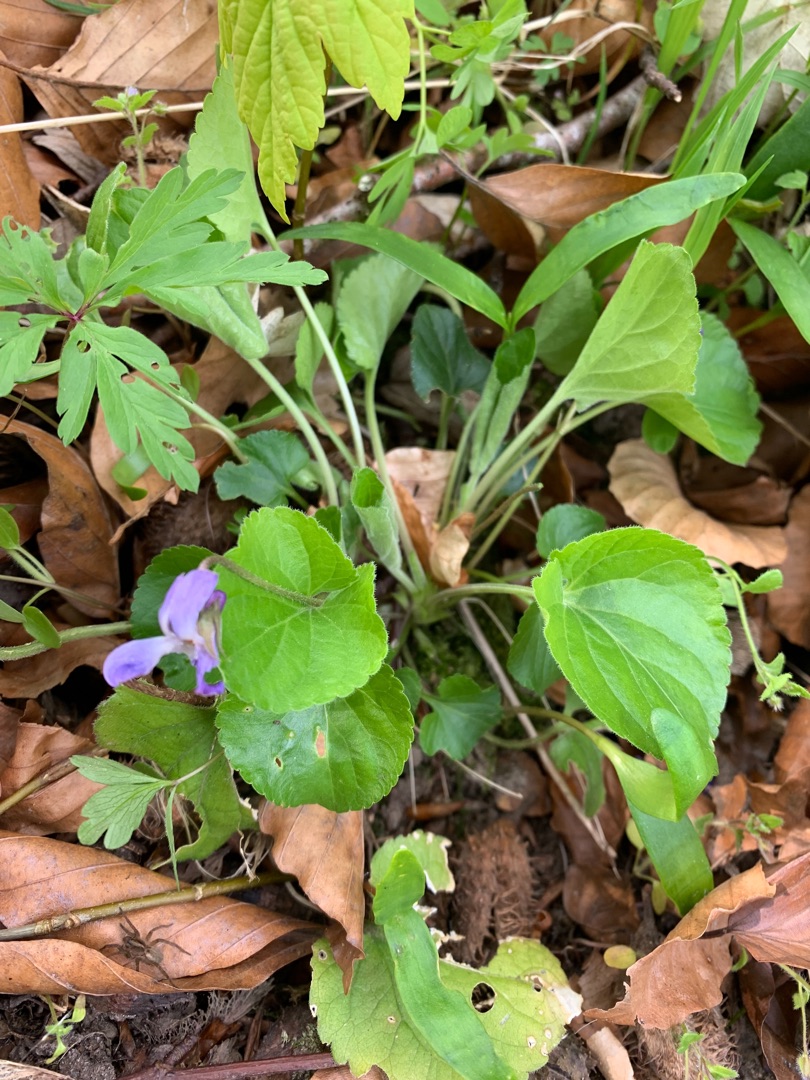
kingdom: Plantae
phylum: Tracheophyta
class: Magnoliopsida
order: Malpighiales
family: Violaceae
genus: Viola
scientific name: Viola odorata
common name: Marts-viol
